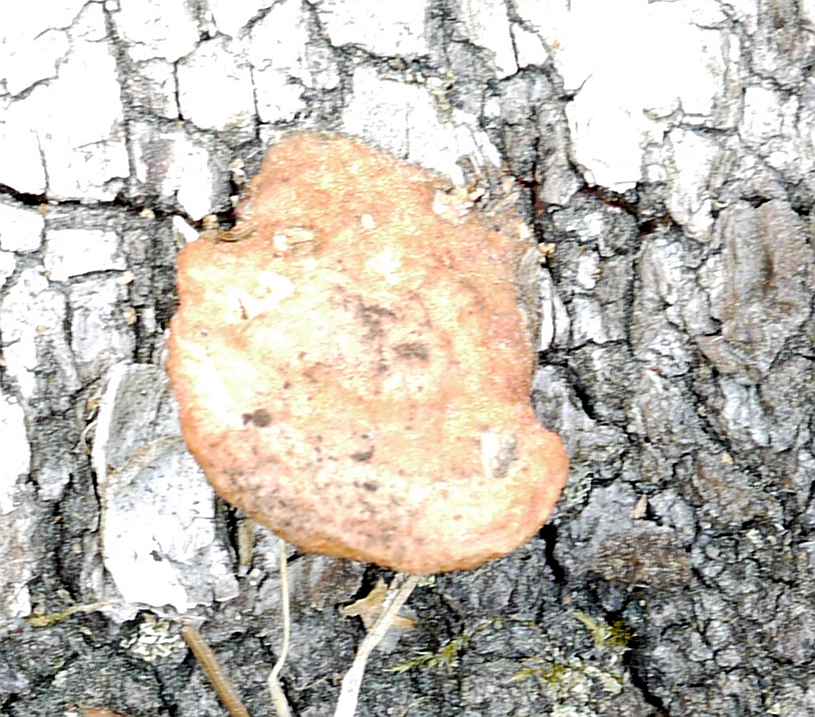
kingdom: Fungi
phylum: Basidiomycota
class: Agaricomycetes
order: Polyporales
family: Polyporaceae
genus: Trametes
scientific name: Trametes cinnabarina
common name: cinnoberporesvamp
